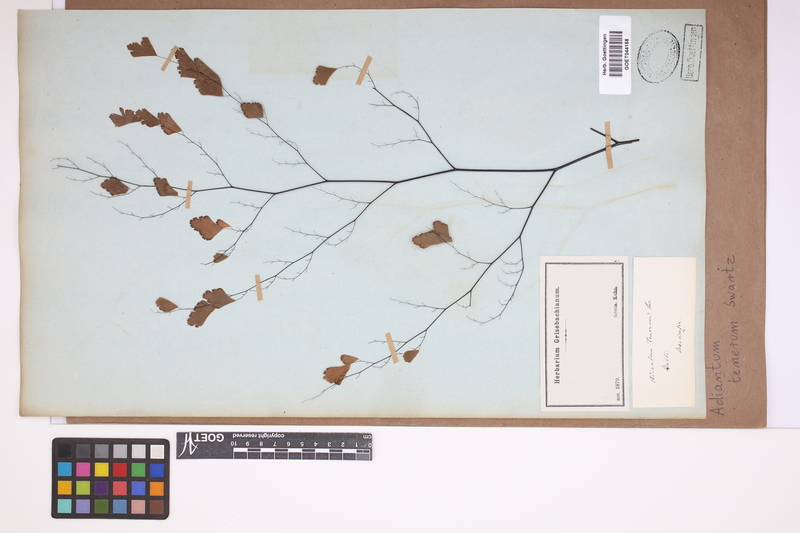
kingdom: Plantae
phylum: Tracheophyta
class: Polypodiopsida
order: Polypodiales
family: Pteridaceae
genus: Adiantum
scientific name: Adiantum tenerum
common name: Fan maidenhair
